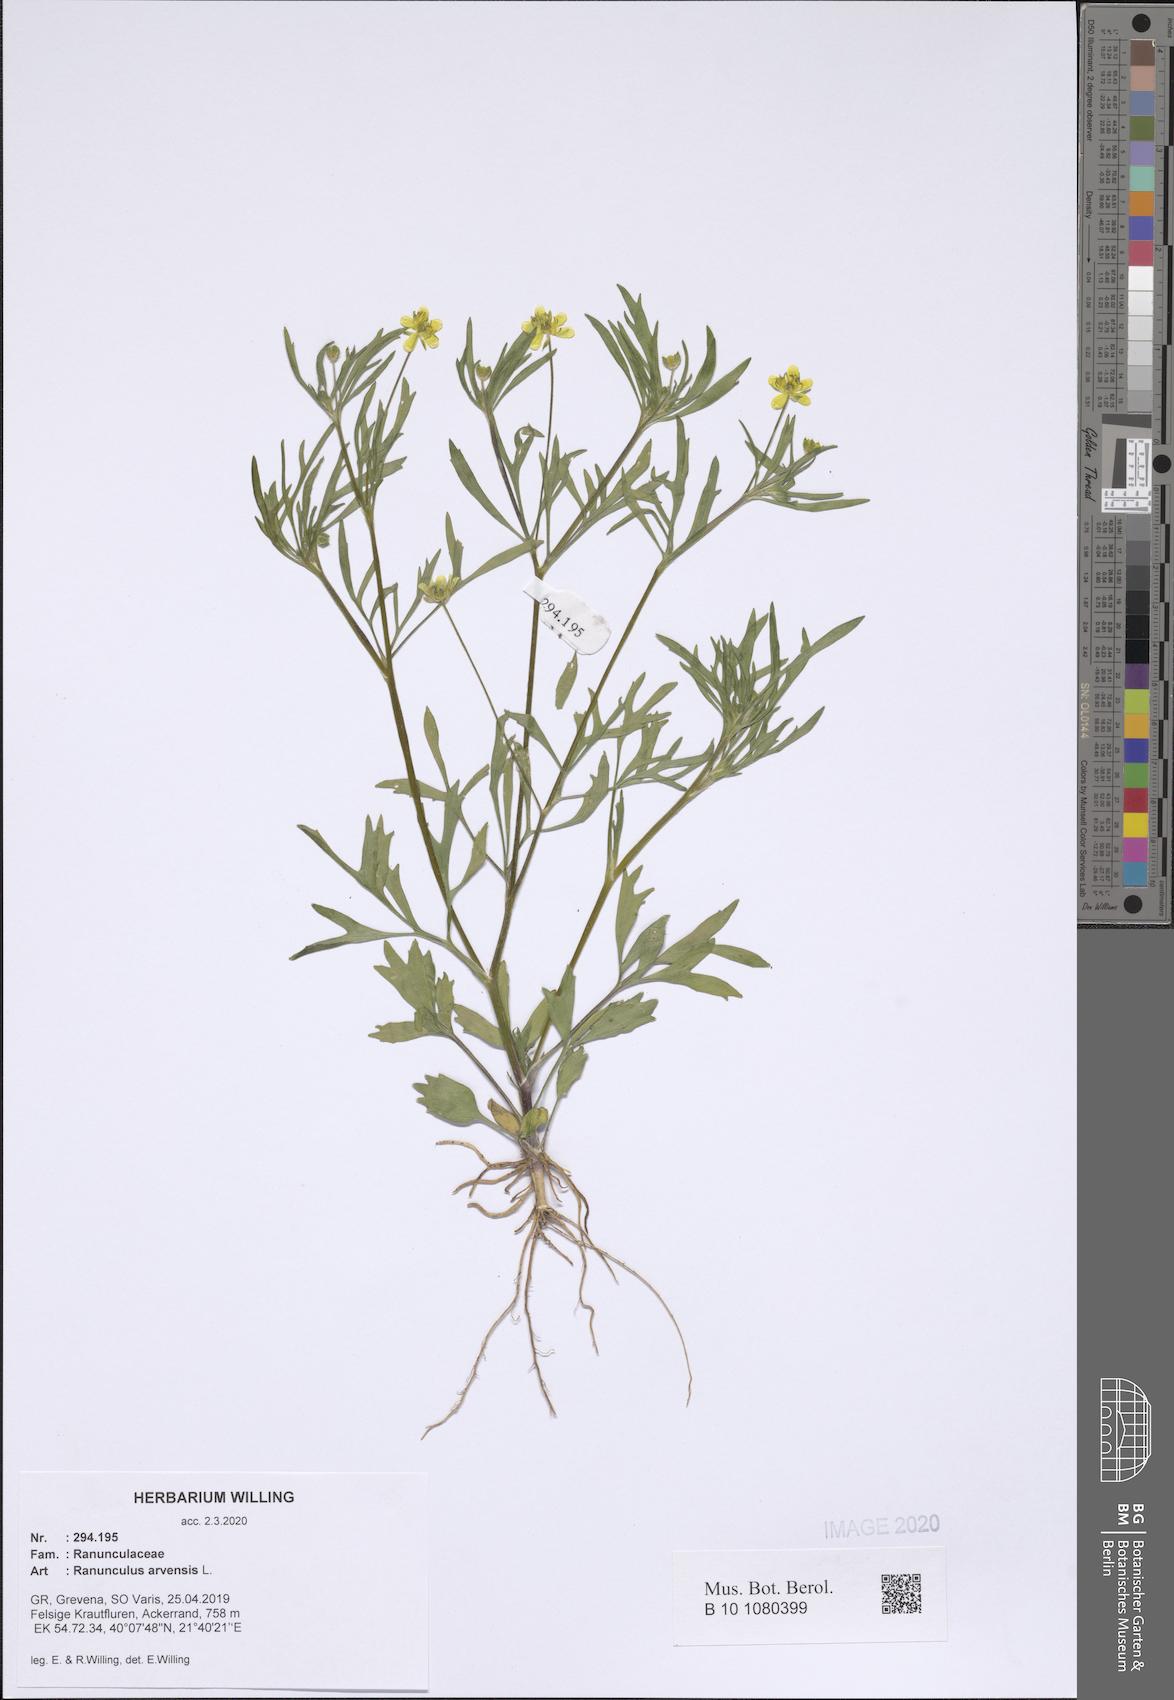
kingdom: Plantae
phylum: Tracheophyta
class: Magnoliopsida
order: Ranunculales
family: Ranunculaceae
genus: Ranunculus
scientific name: Ranunculus arvensis
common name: Corn buttercup
